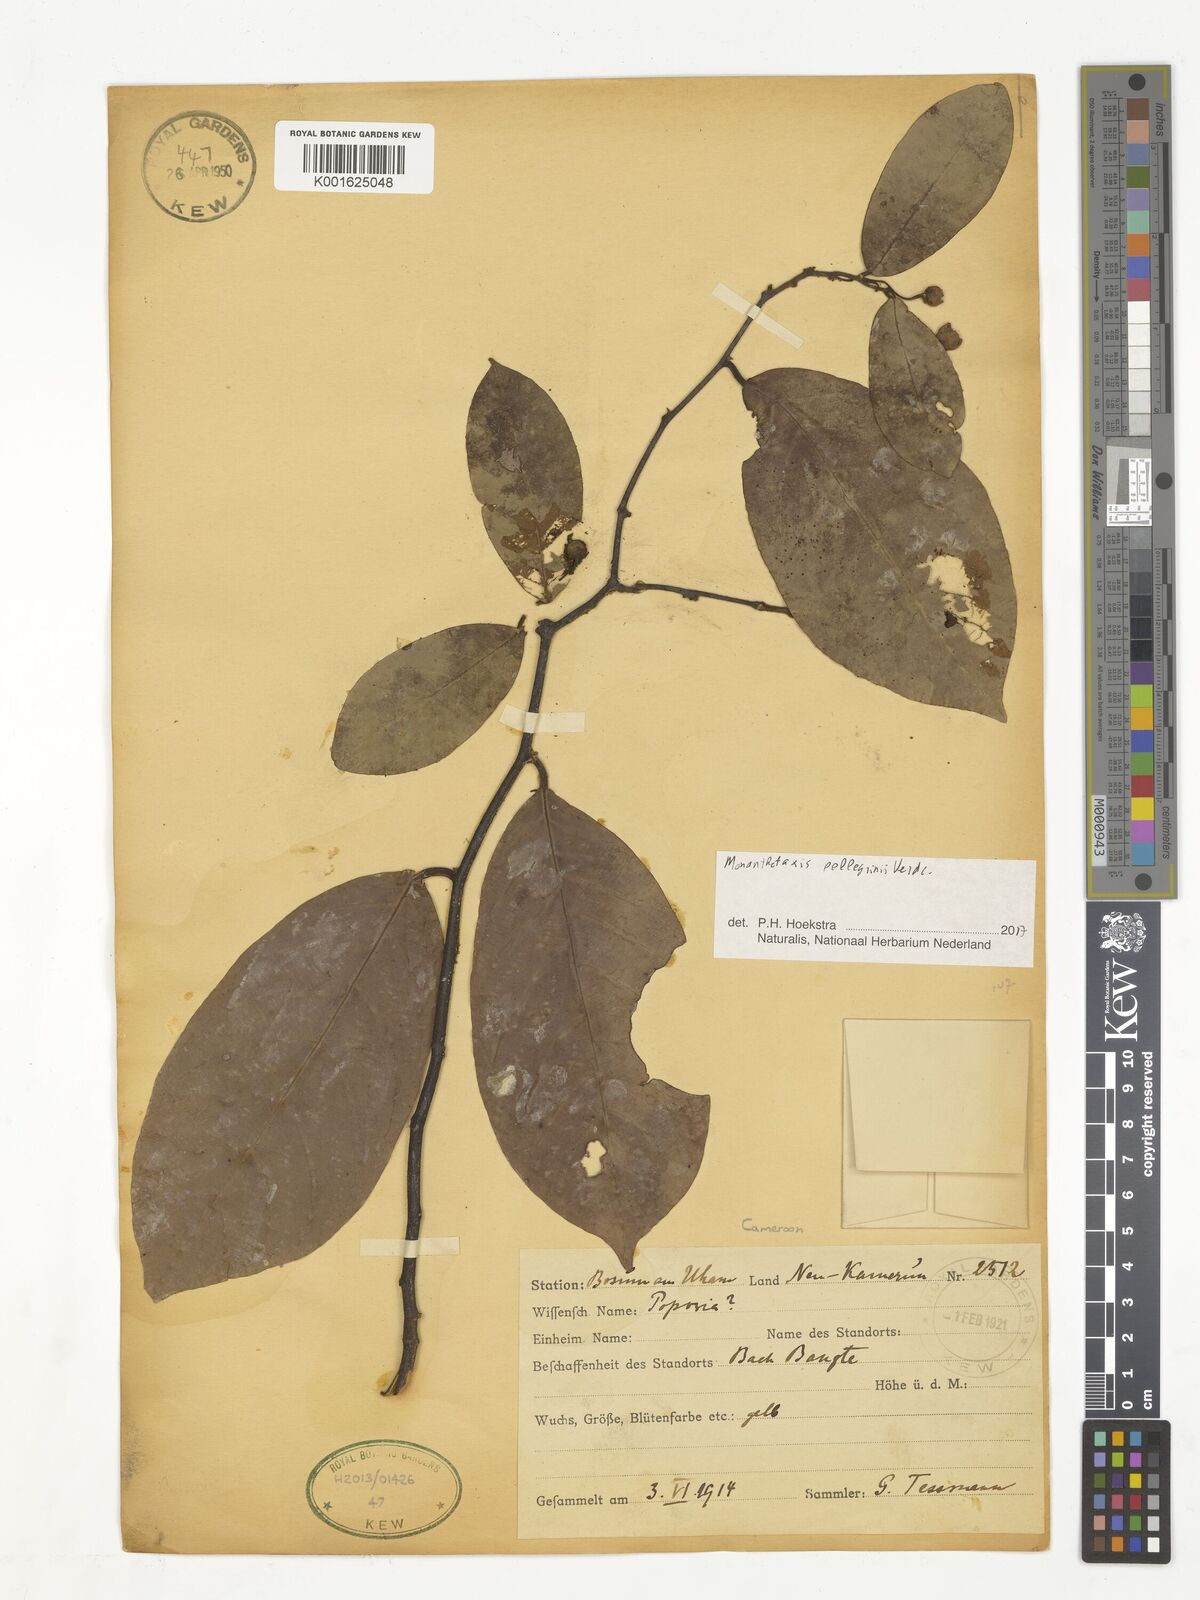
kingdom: Plantae
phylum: Tracheophyta
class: Magnoliopsida
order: Magnoliales
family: Annonaceae
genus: Monanthotaxis
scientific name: Monanthotaxis pellegrinii
